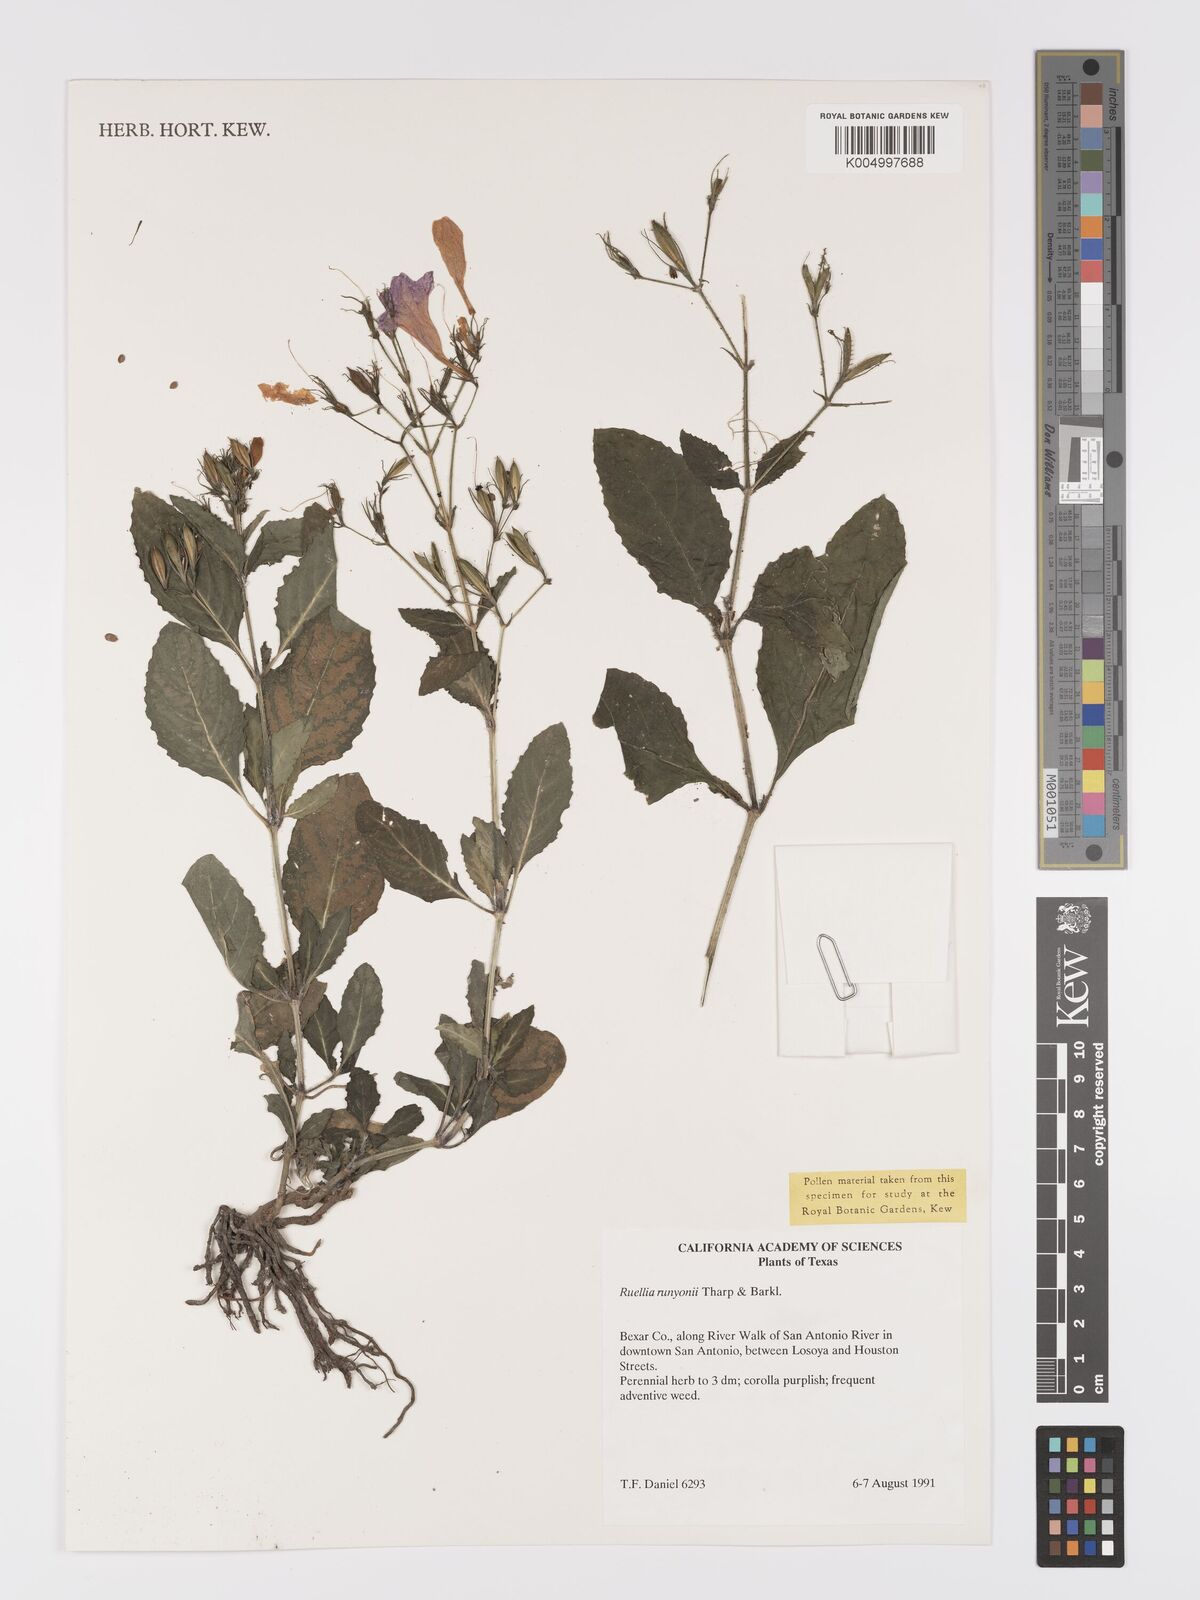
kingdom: Plantae
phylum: Tracheophyta
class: Magnoliopsida
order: Lamiales
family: Acanthaceae
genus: Ruellia
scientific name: Ruellia ciliatiflora
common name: Hairyflower wild petunia
